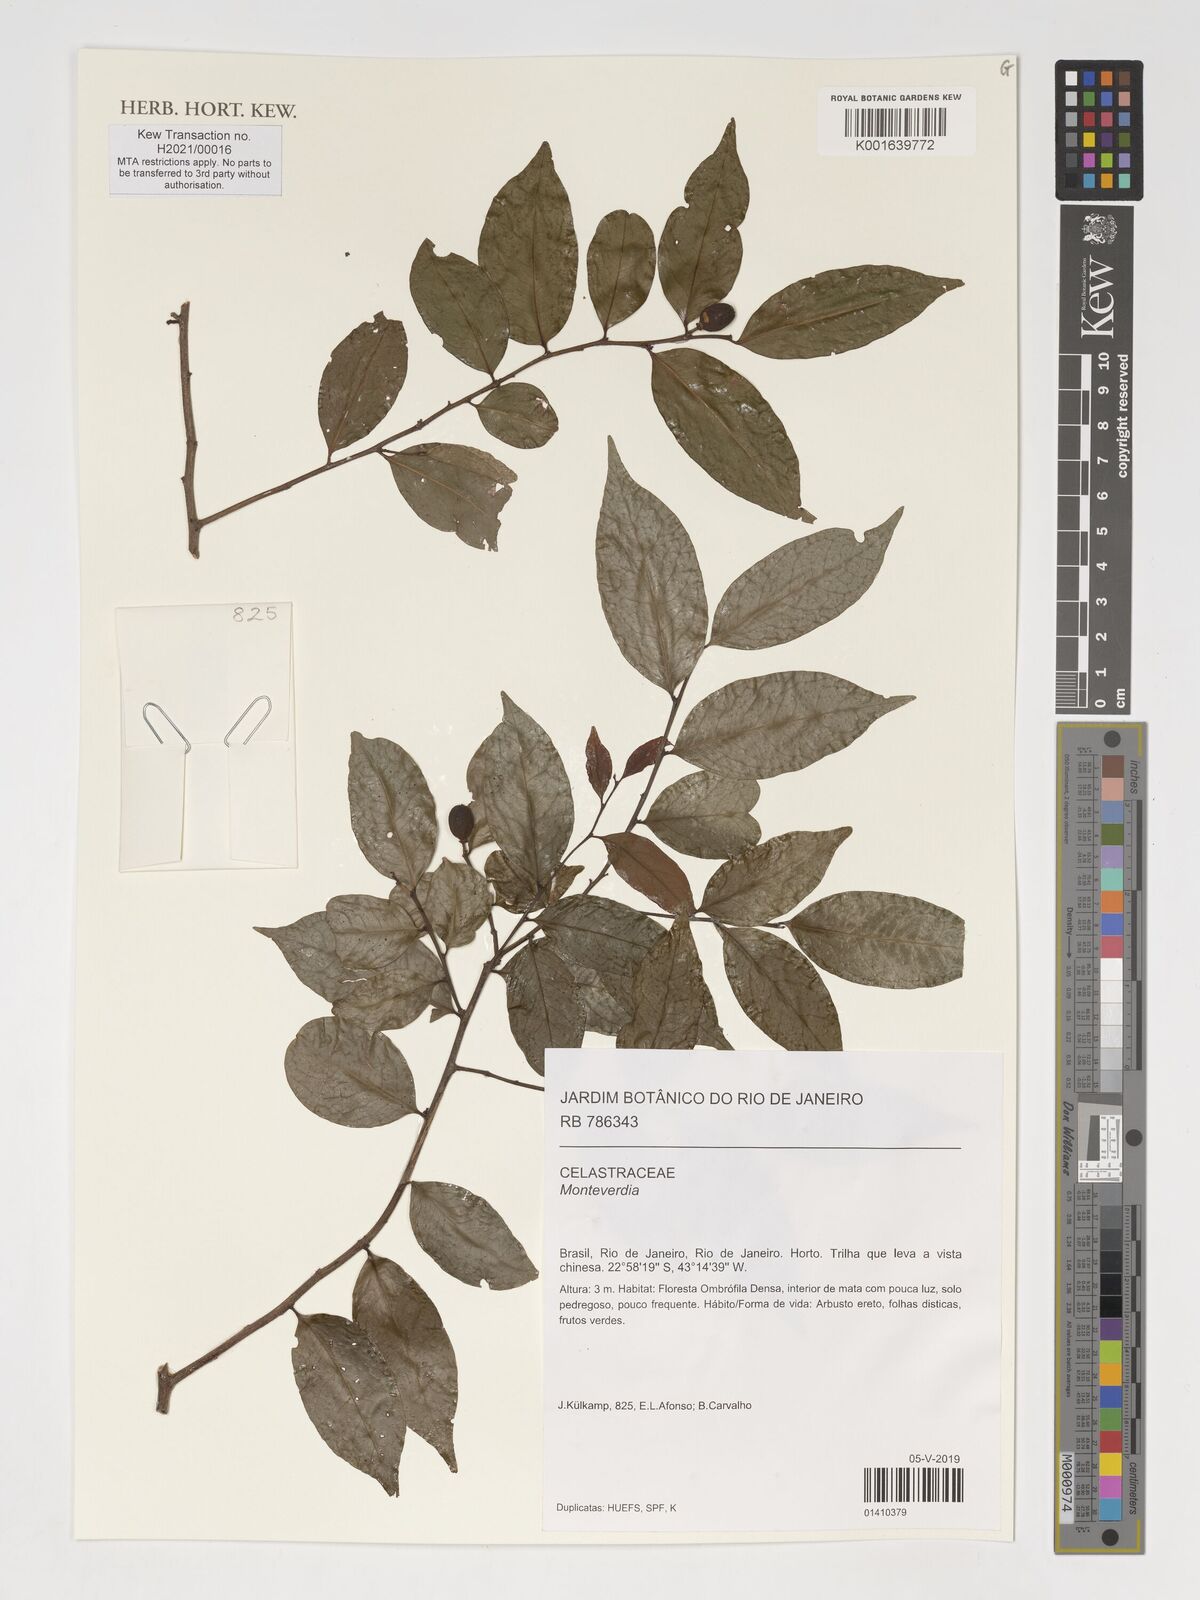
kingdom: Plantae
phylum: Tracheophyta
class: Magnoliopsida
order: Celastrales
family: Celastraceae
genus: Maytenus
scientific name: Maytenus
